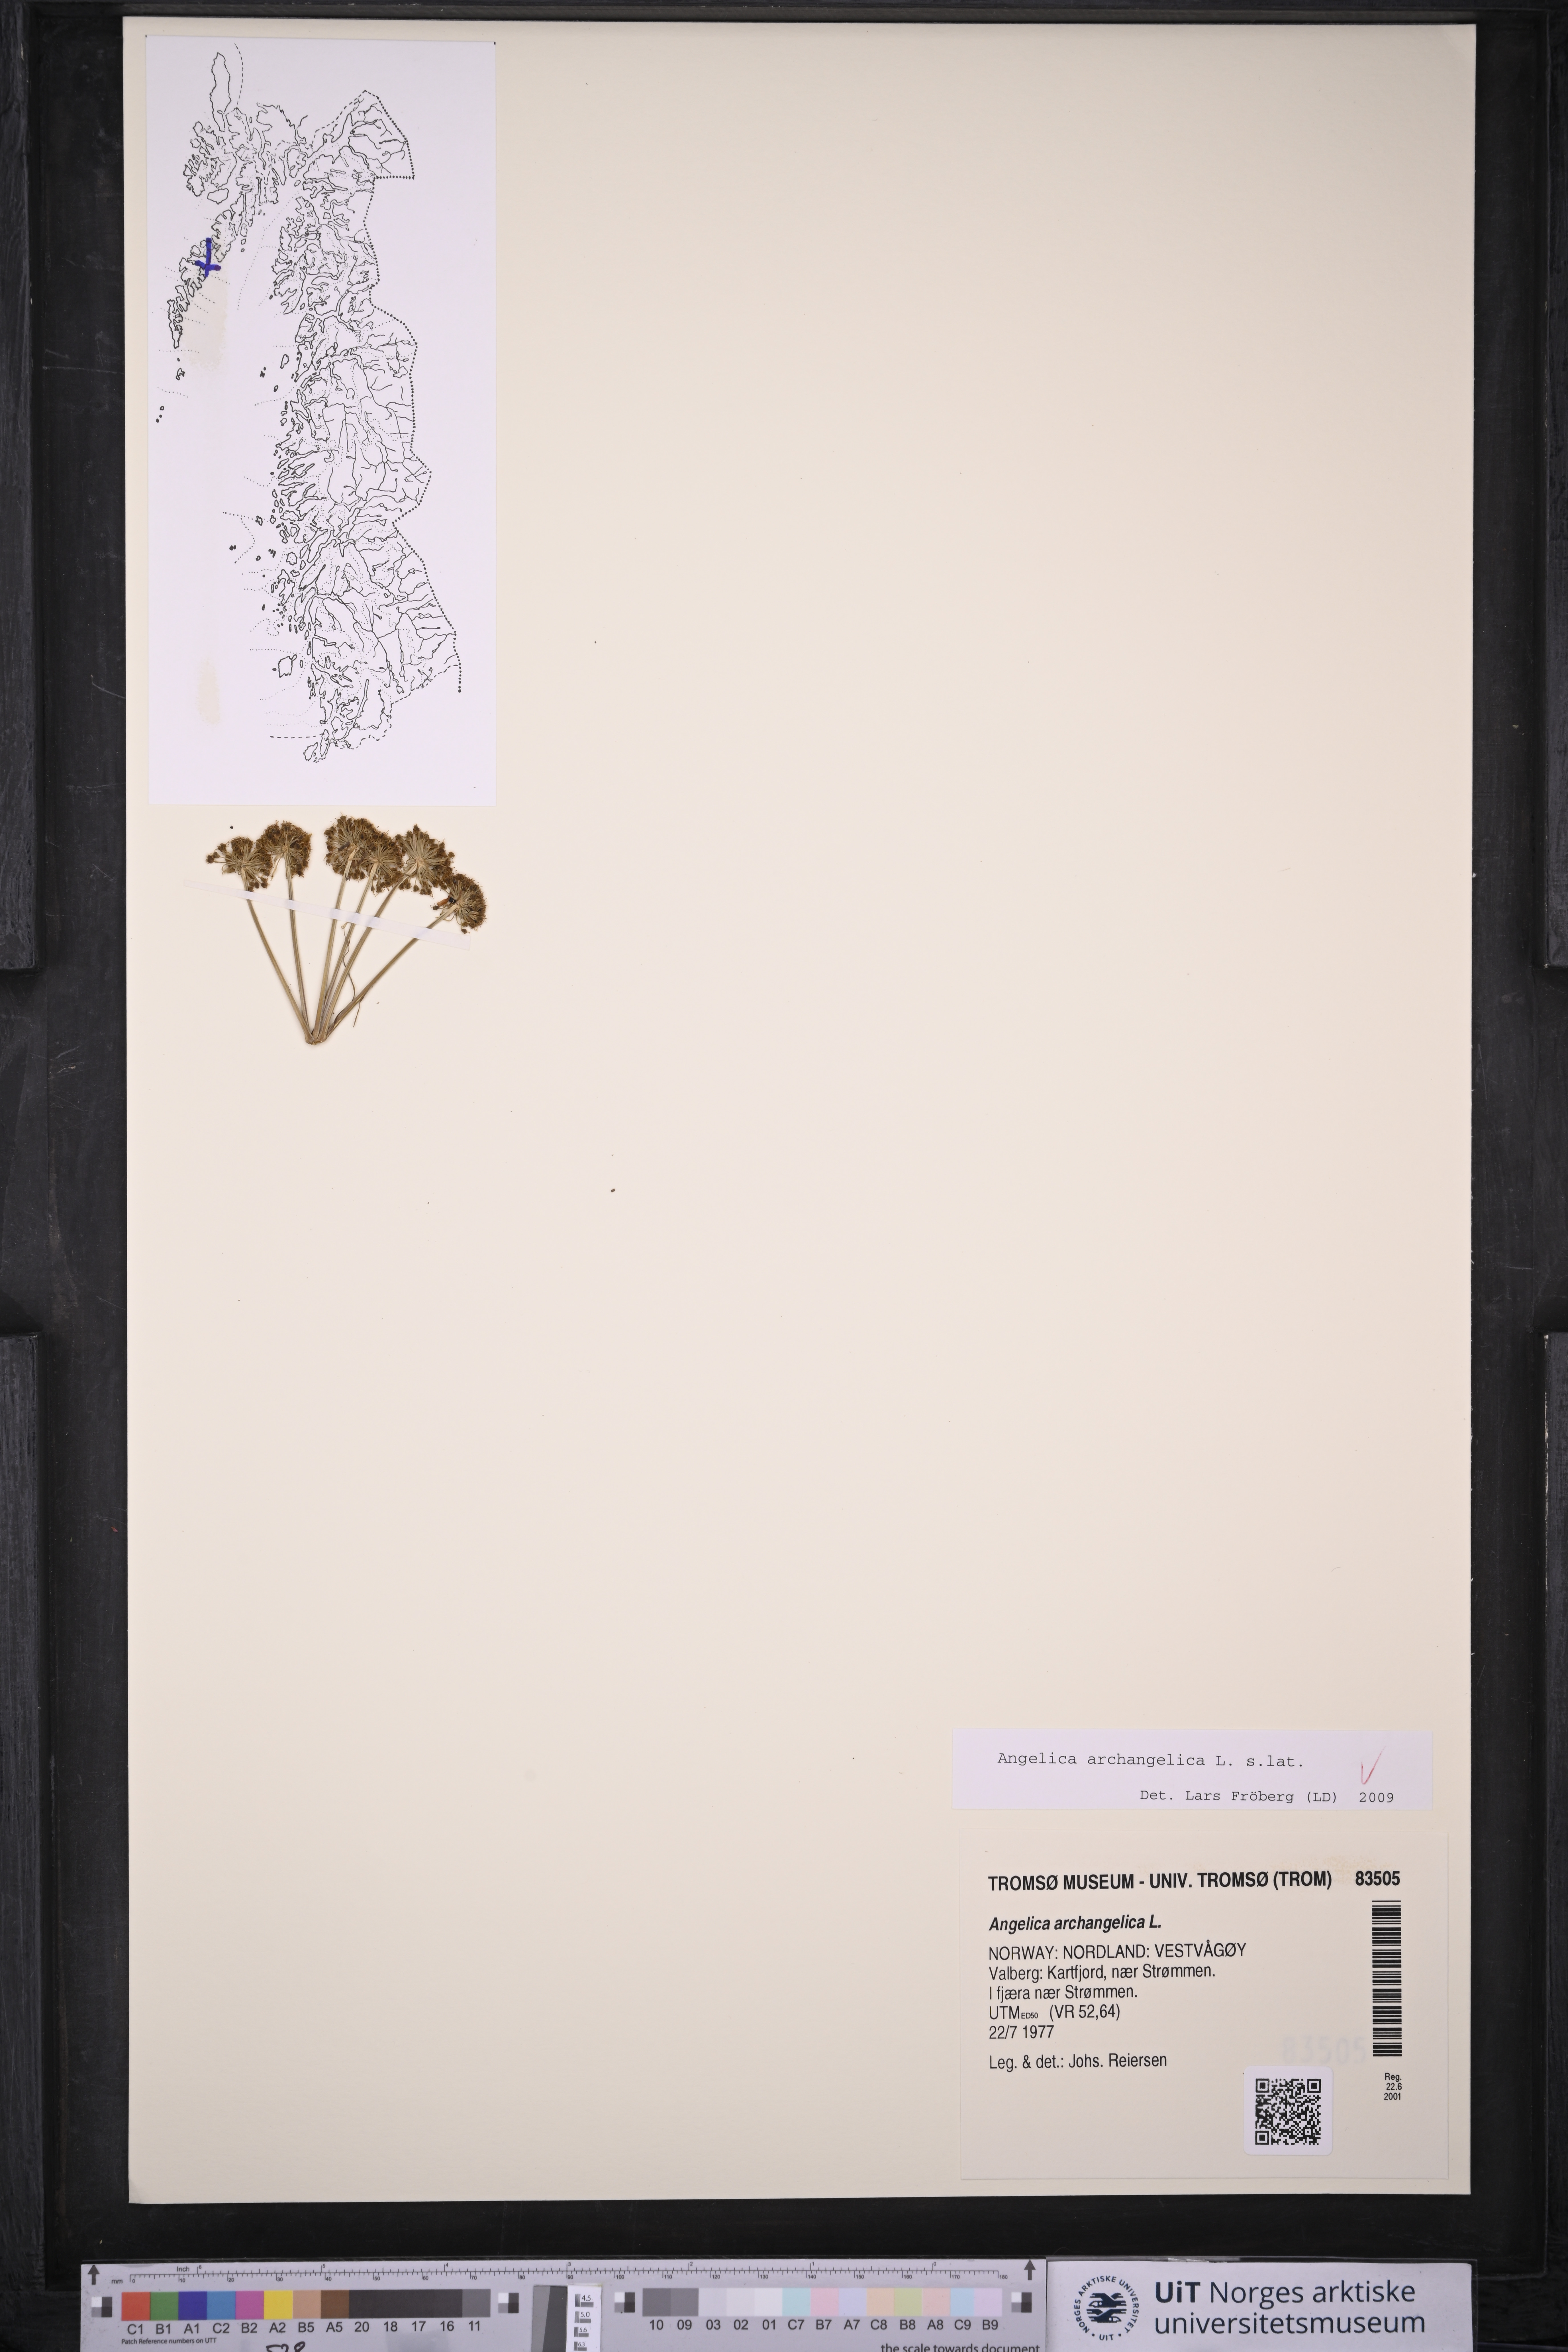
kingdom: Plantae
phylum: Tracheophyta
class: Magnoliopsida
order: Apiales
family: Apiaceae
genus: Angelica
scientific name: Angelica archangelica
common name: Garden angelica
